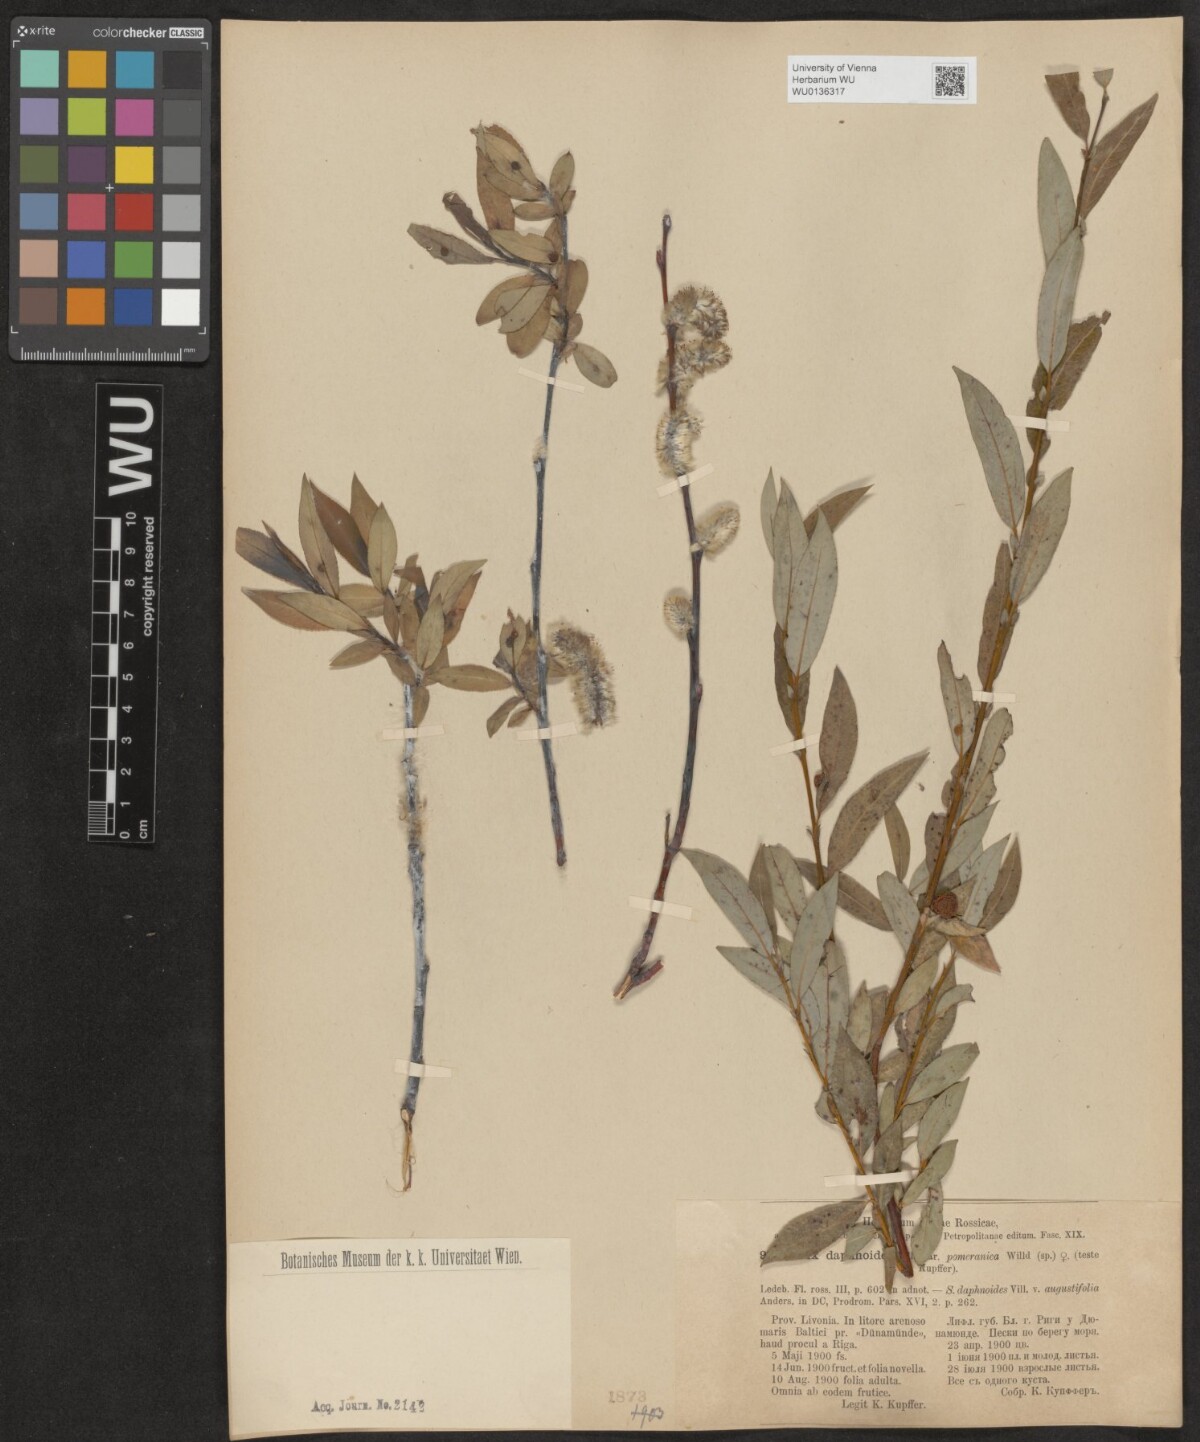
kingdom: Plantae
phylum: Tracheophyta
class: Magnoliopsida
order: Malpighiales
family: Salicaceae
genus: Salix
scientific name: Salix daphnoides
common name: European violet-willow
